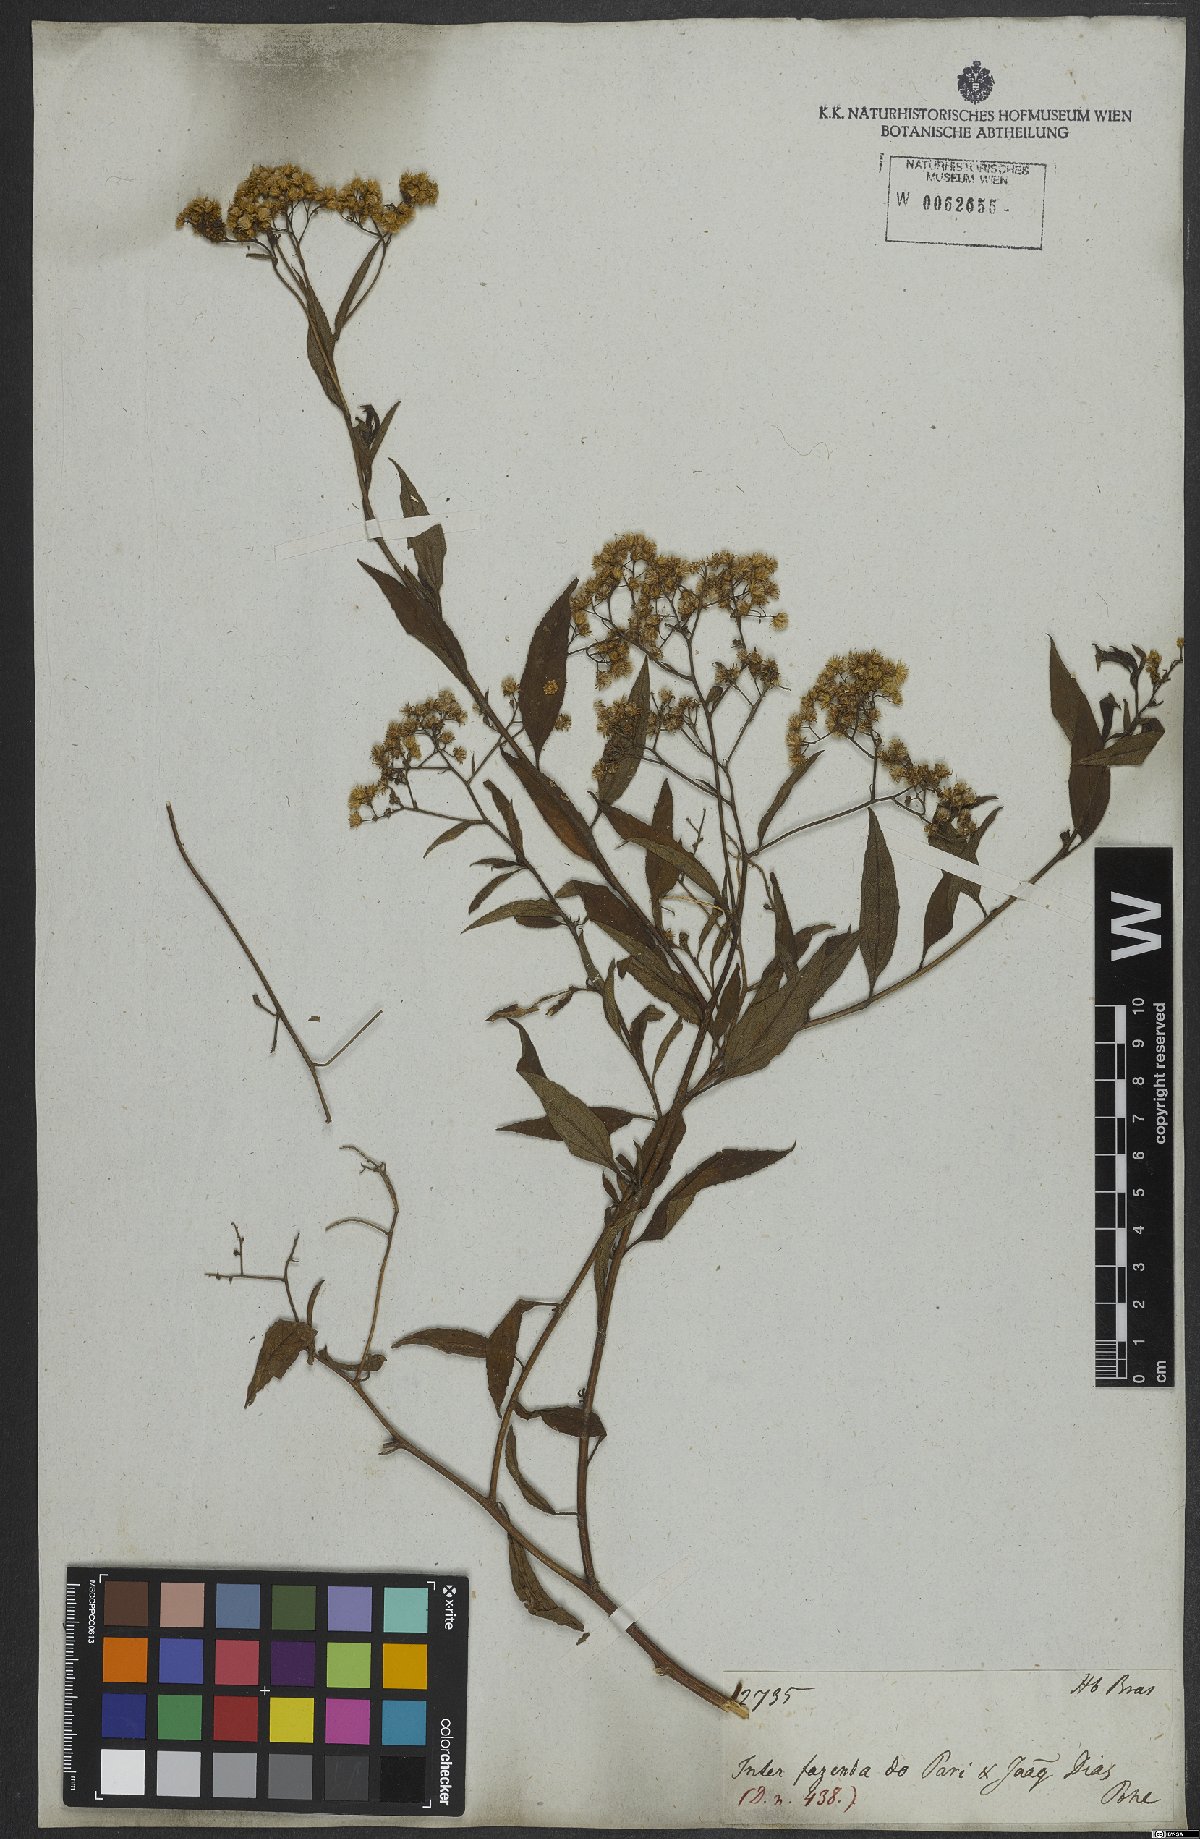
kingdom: Plantae
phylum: Tracheophyta
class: Magnoliopsida
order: Asterales
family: Asteraceae
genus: Archibaccharis
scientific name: Archibaccharis vulneraria
